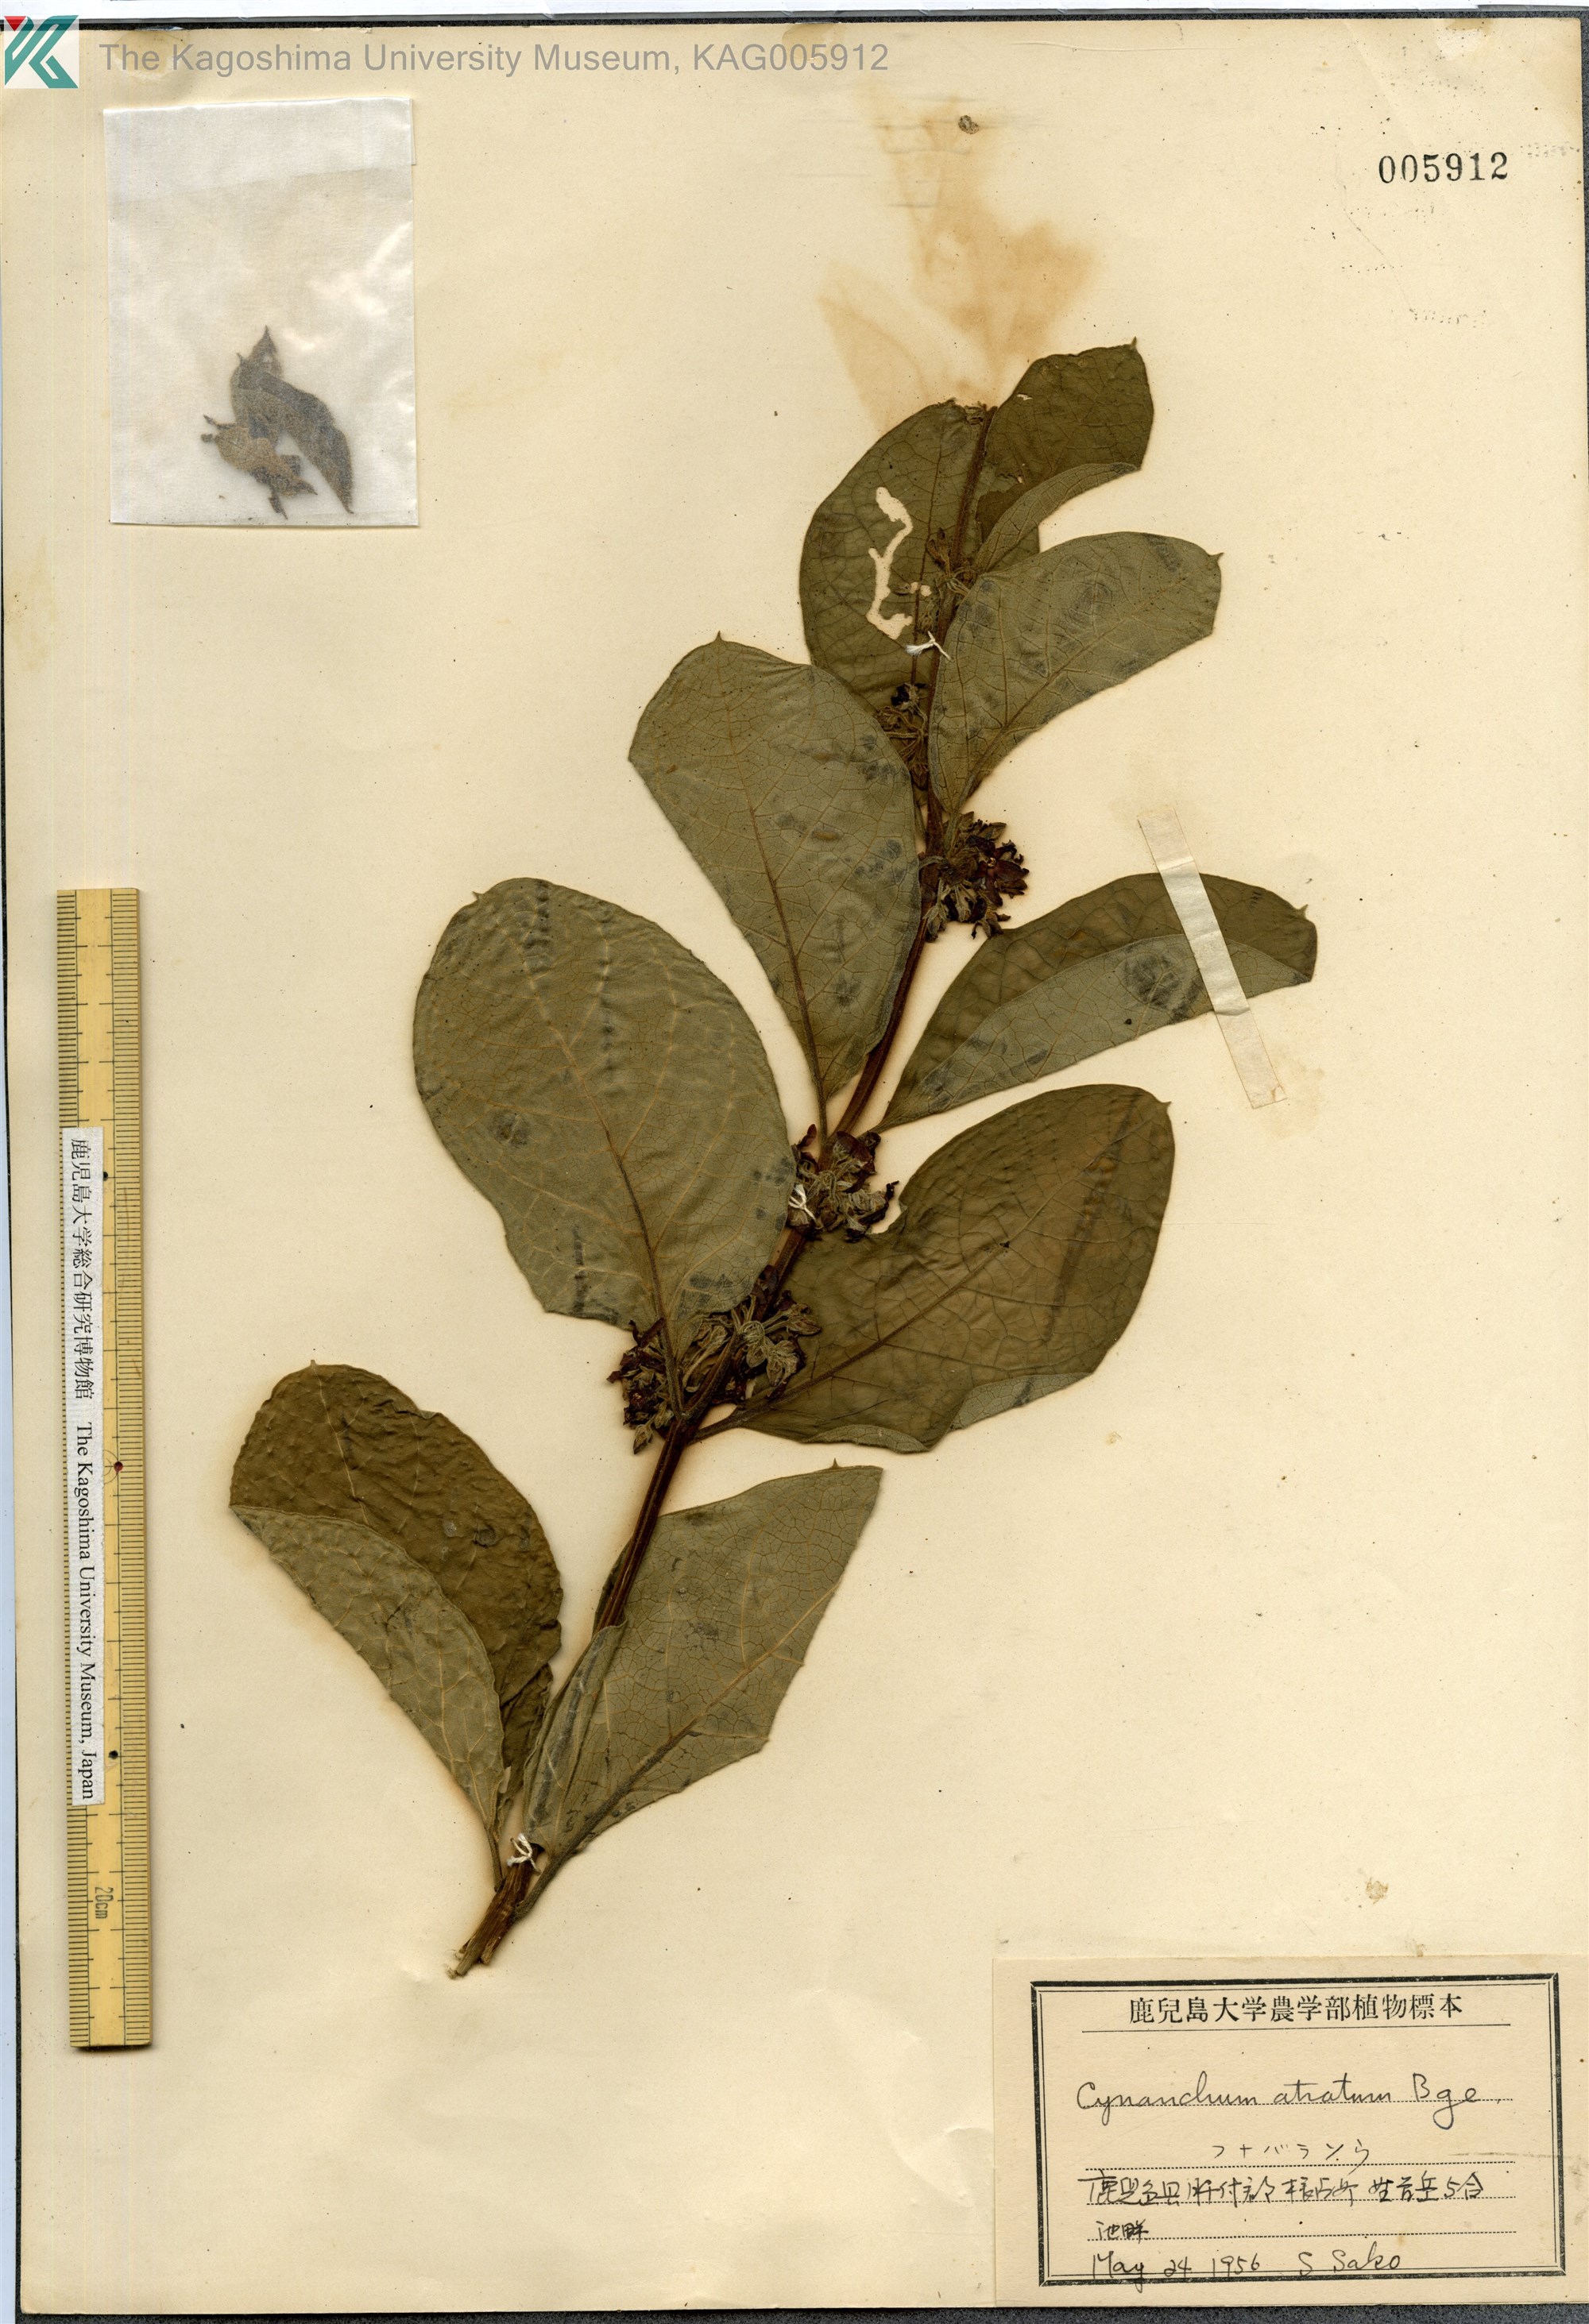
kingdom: Plantae
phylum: Tracheophyta
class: Magnoliopsida
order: Gentianales
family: Apocynaceae
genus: Vincetoxicum
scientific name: Vincetoxicum atratum
